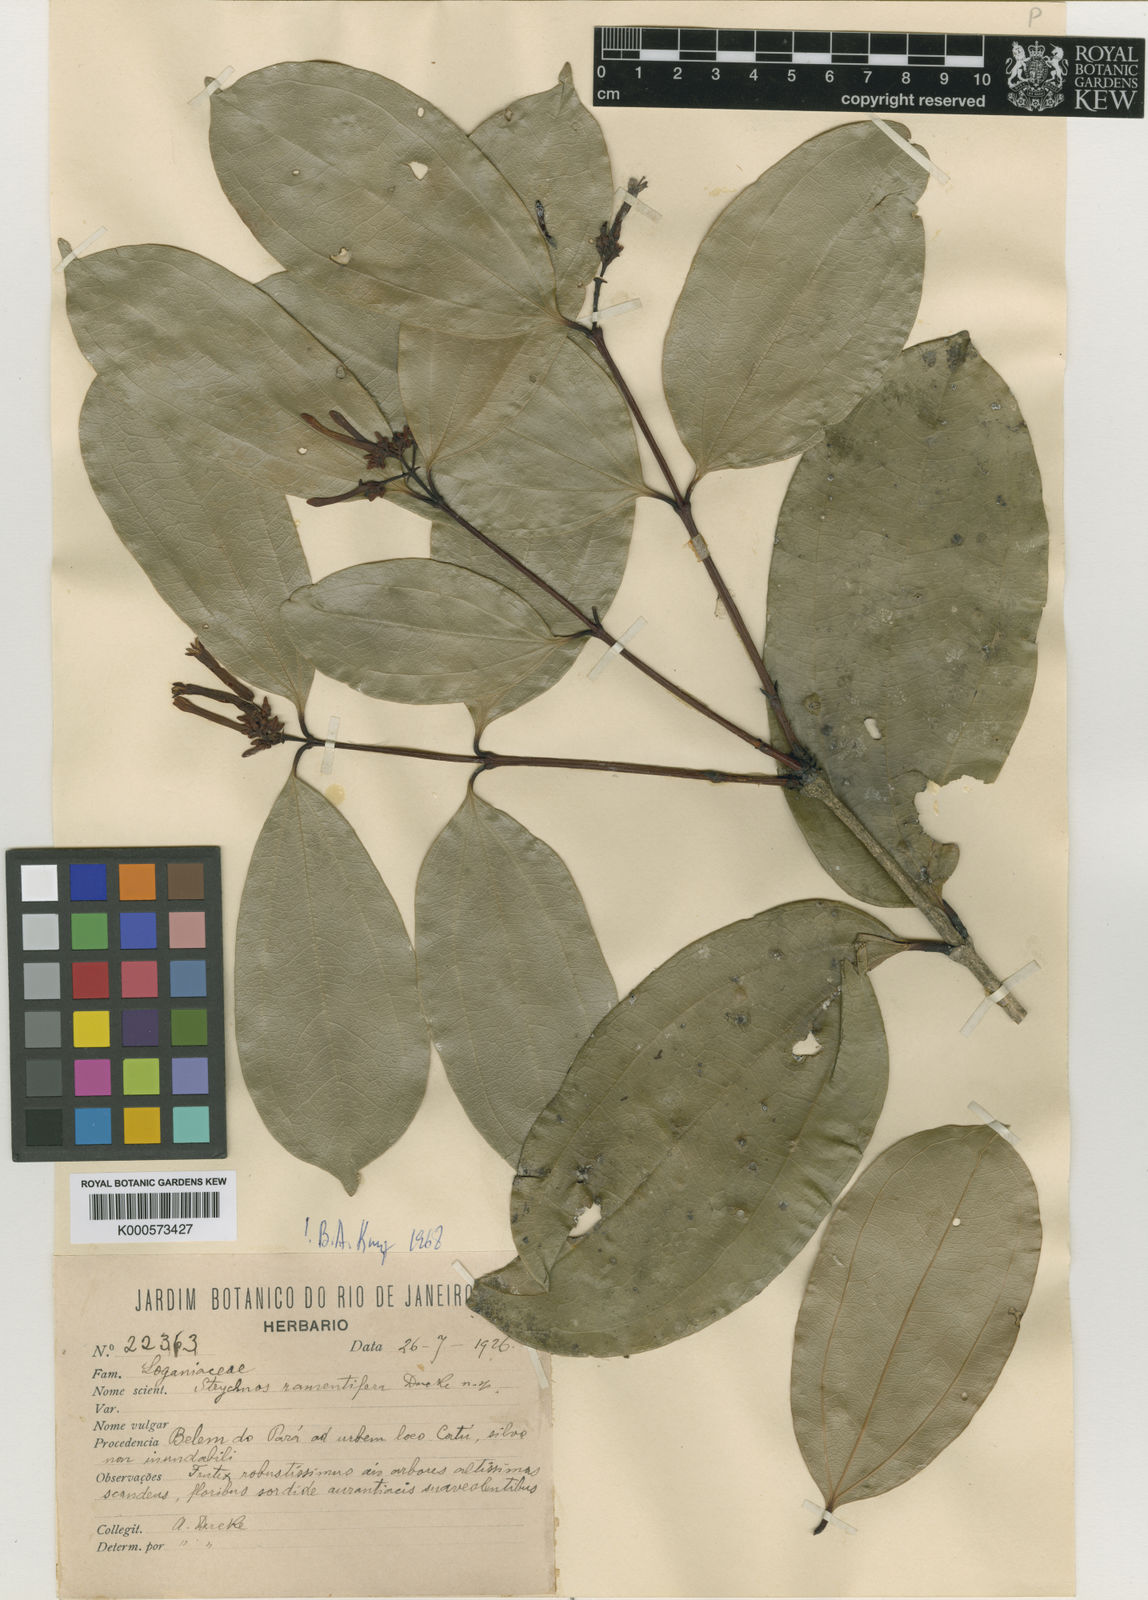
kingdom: Plantae
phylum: Tracheophyta
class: Magnoliopsida
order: Gentianales
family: Loganiaceae
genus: Strychnos
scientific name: Strychnos ramentifera
